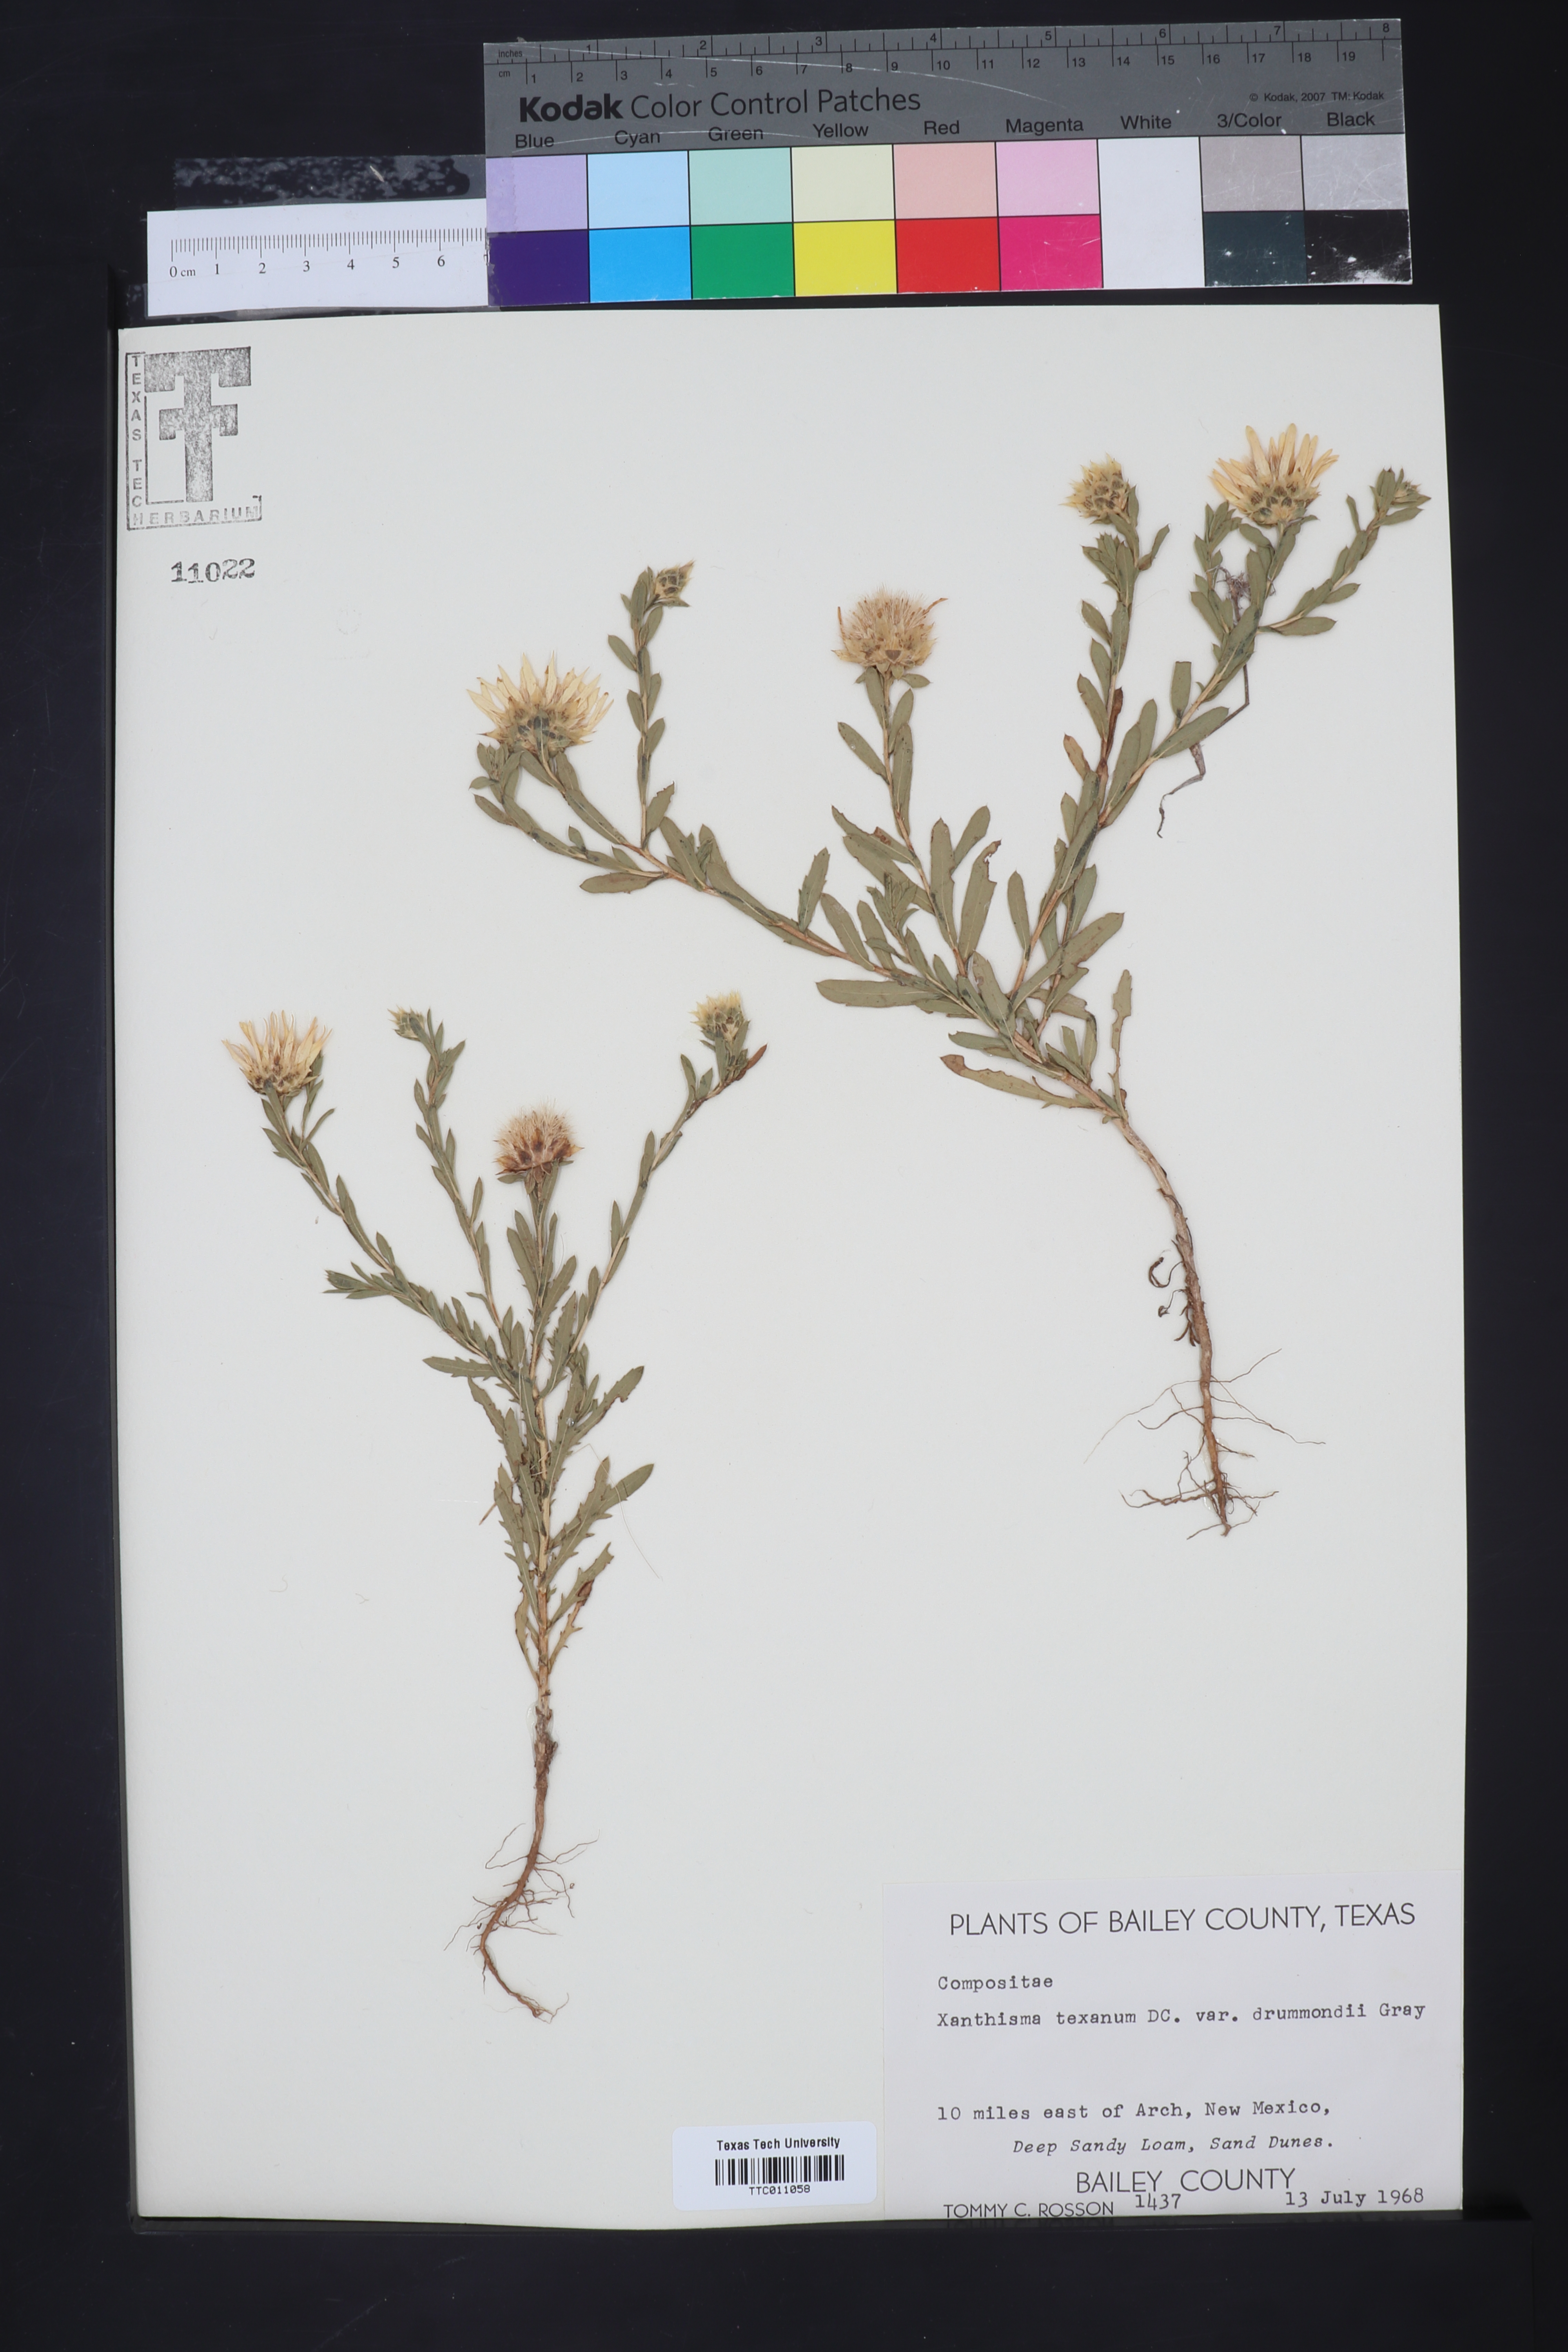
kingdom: Plantae
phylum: Tracheophyta
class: Magnoliopsida
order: Asterales
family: Asteraceae
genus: Xanthisma
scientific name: Xanthisma texanum
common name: Texas sleepy daisy
